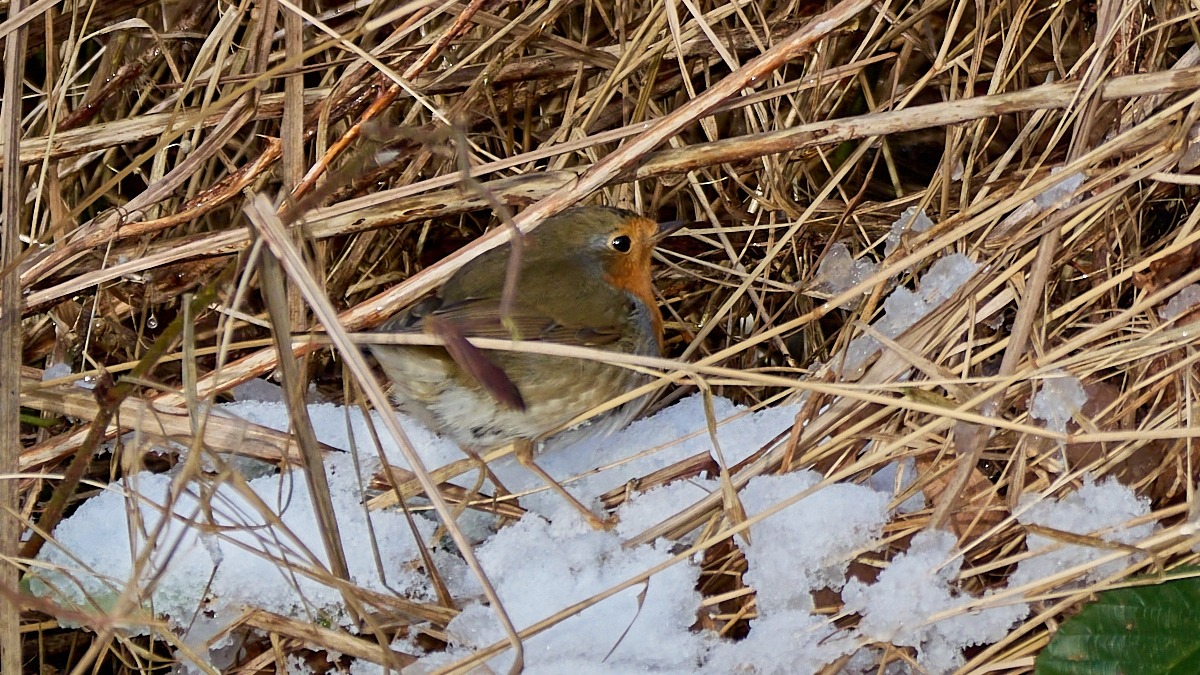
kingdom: Animalia
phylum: Chordata
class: Aves
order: Passeriformes
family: Muscicapidae
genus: Erithacus
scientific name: Erithacus rubecula
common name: Rødhals/rødkælk
